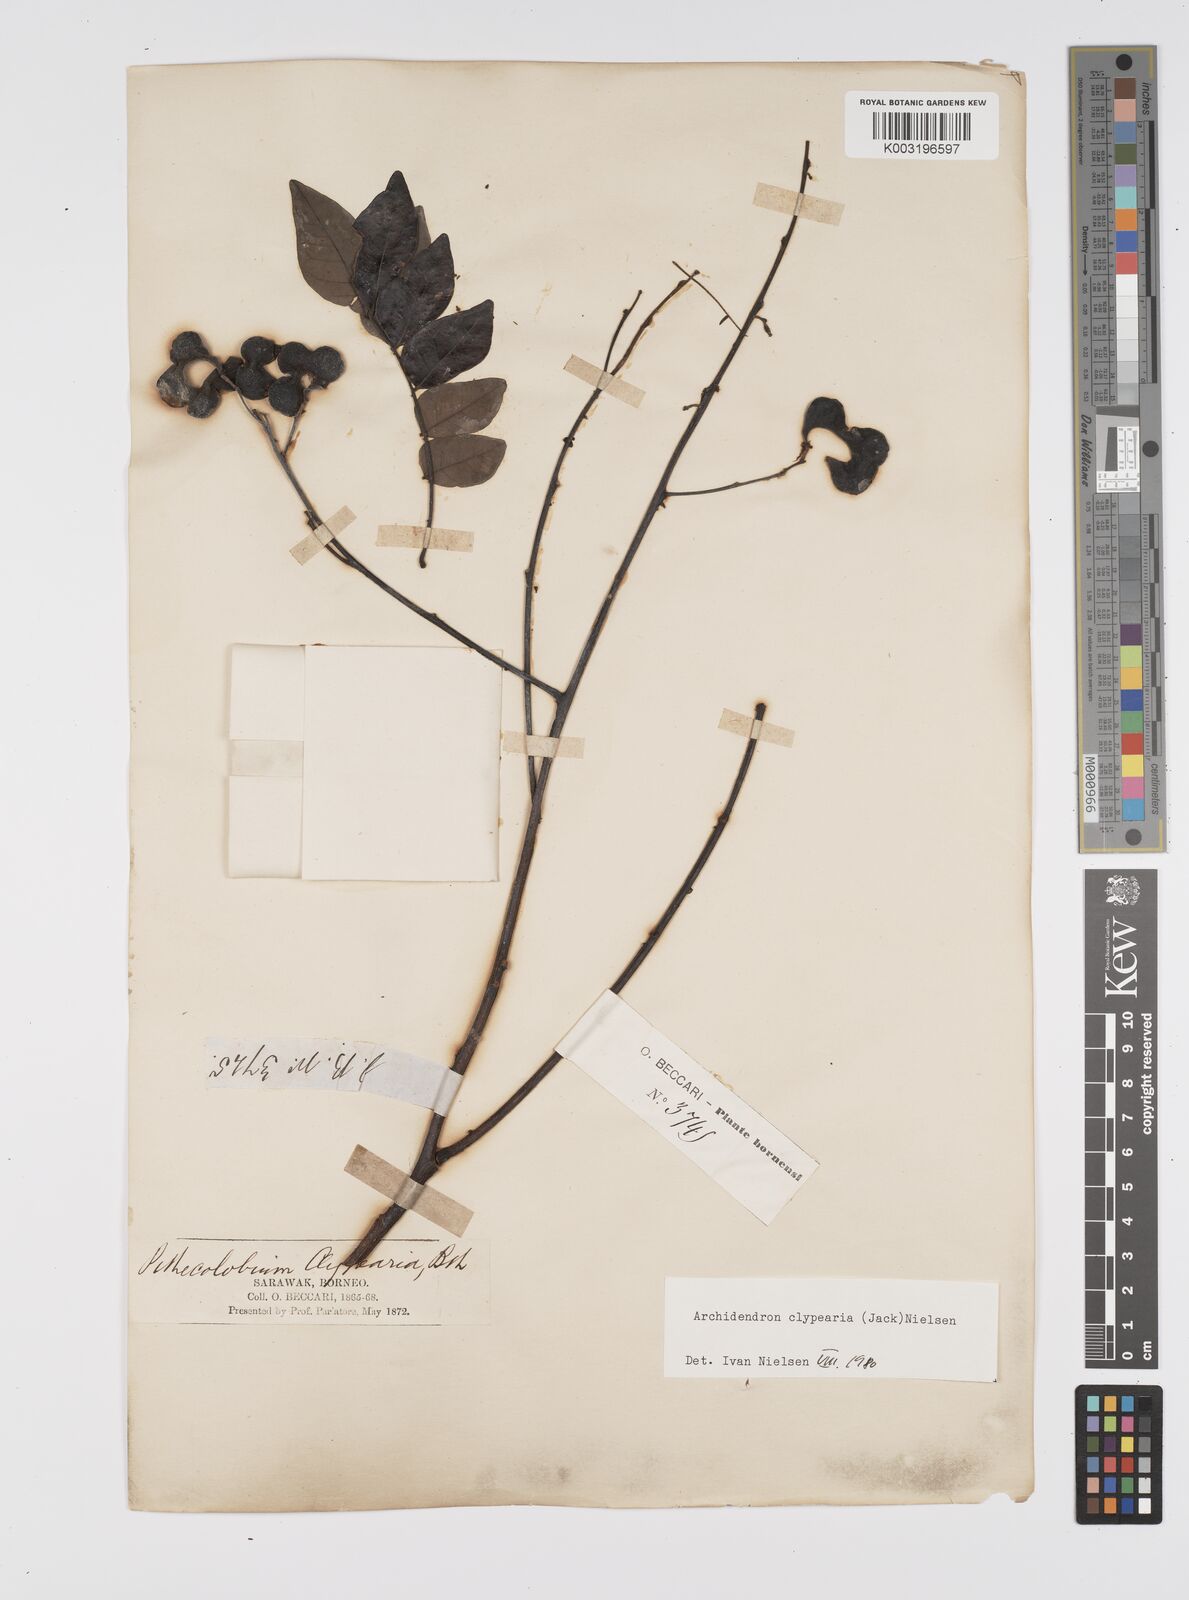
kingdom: Plantae
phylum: Tracheophyta
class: Magnoliopsida
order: Fabales
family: Fabaceae
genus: Archidendron
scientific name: Archidendron clypearia
